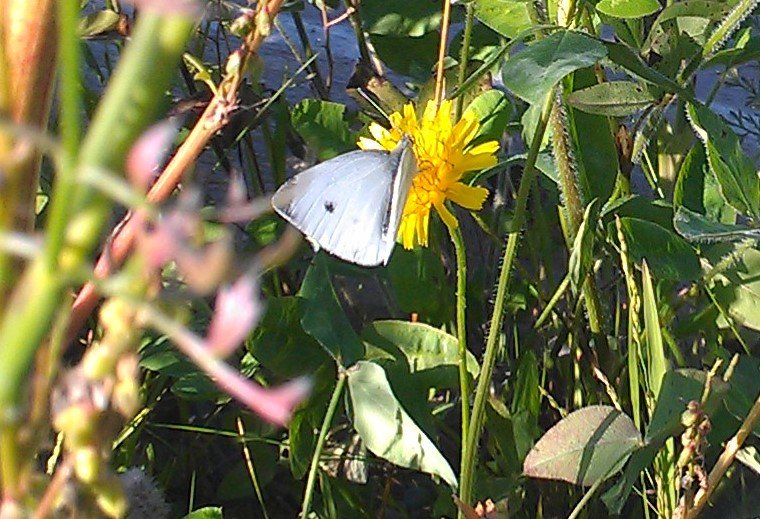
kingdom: Animalia
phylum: Arthropoda
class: Insecta
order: Lepidoptera
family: Pieridae
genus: Pieris
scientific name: Pieris rapae
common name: Cabbage White
